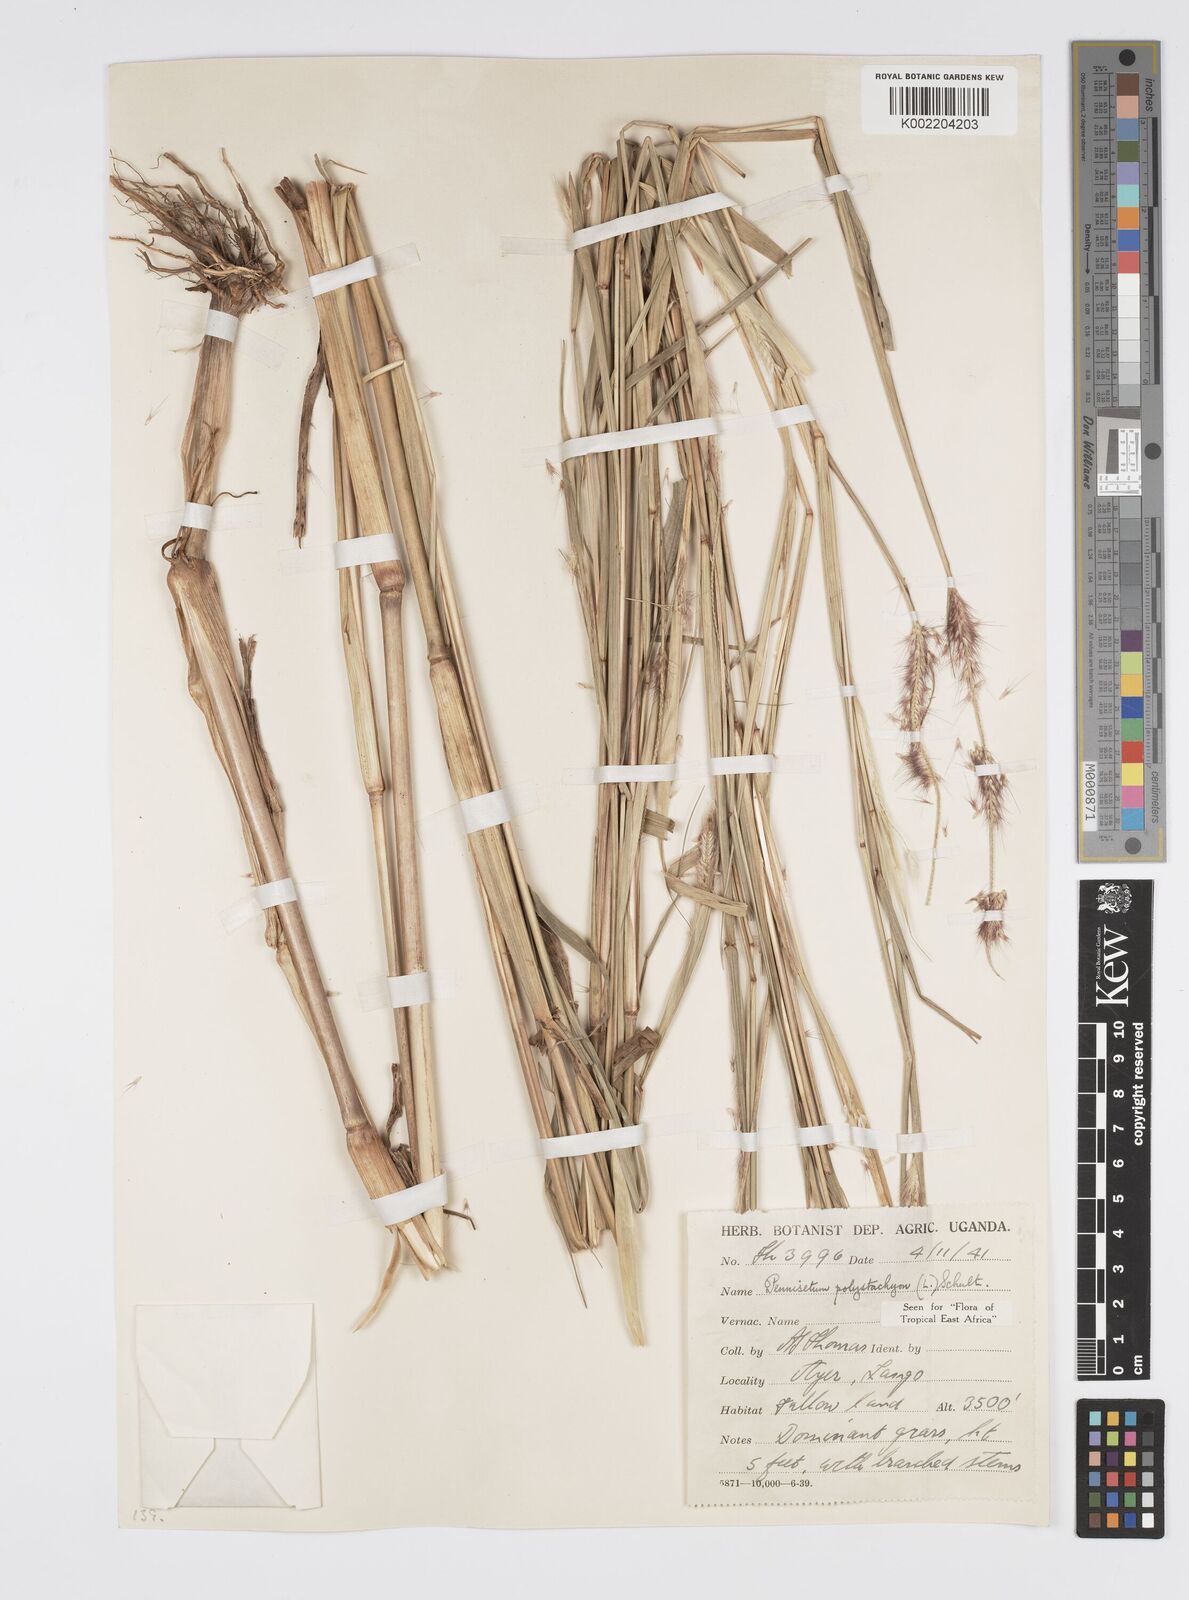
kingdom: Plantae
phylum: Tracheophyta
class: Liliopsida
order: Poales
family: Poaceae
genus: Setaria
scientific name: Setaria parviflora
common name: Knotroot bristle-grass
